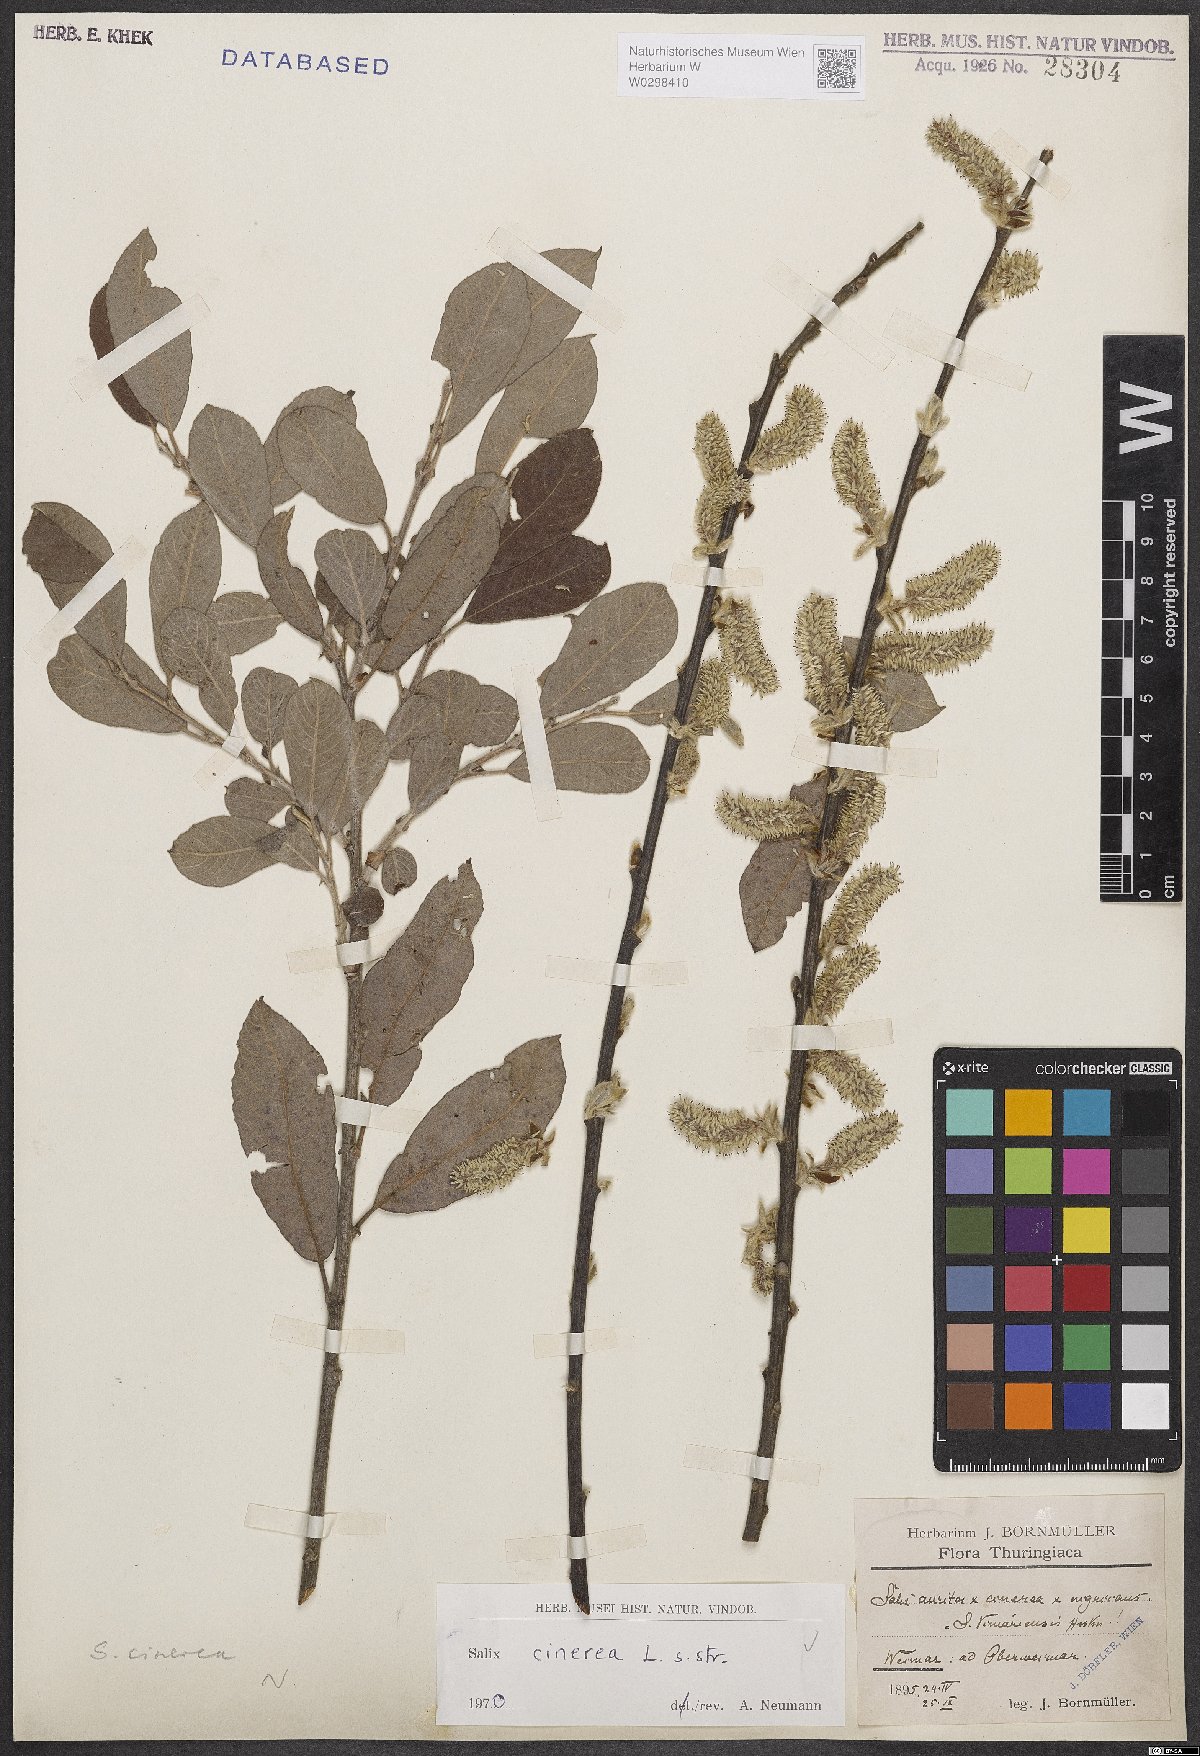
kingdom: Plantae
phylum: Tracheophyta
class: Magnoliopsida
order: Malpighiales
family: Salicaceae
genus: Salix
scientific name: Salix cinerea
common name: Common sallow
